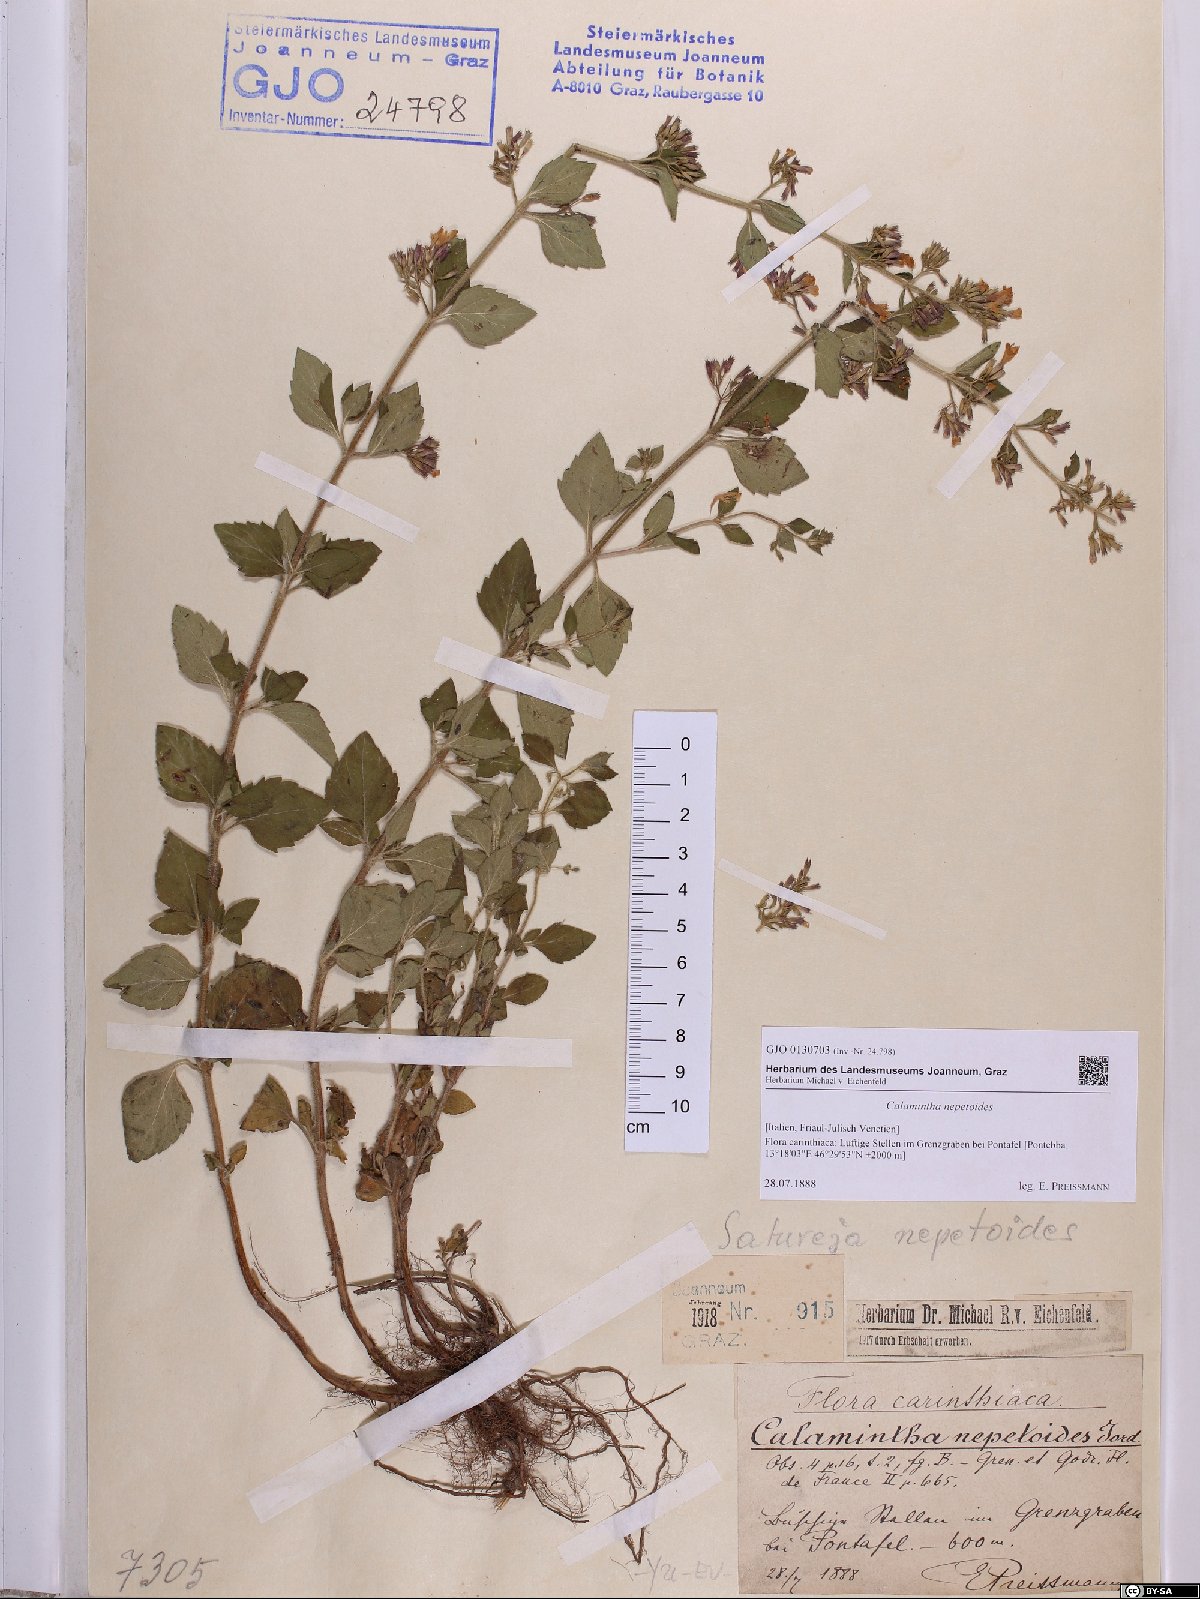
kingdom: Plantae
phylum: Tracheophyta
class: Magnoliopsida
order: Lamiales
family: Lamiaceae
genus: Clinopodium
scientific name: Clinopodium nepeta
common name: Lesser calamint
